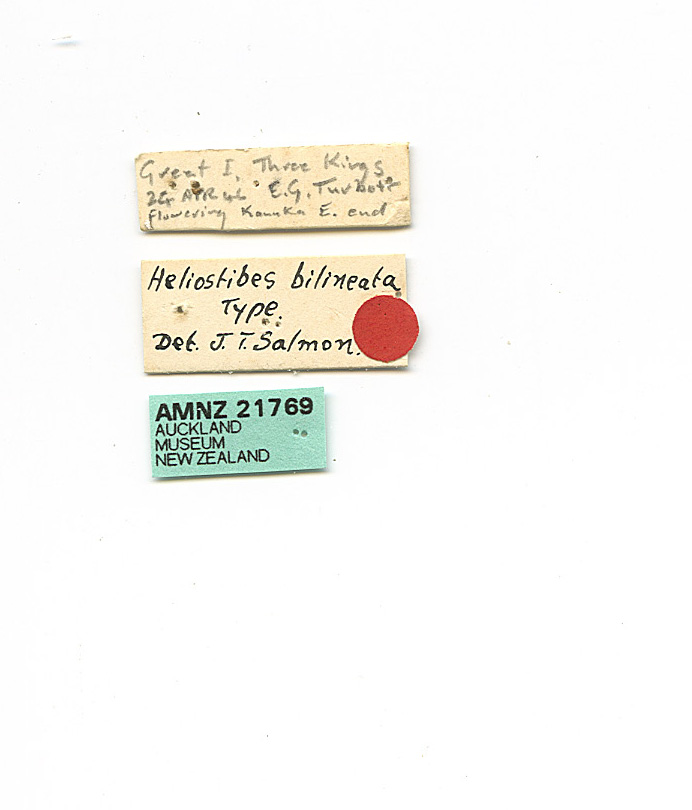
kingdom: Animalia
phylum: Arthropoda
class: Insecta
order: Lepidoptera
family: Oecophoridae
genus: Hierodoris
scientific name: Hierodoris
